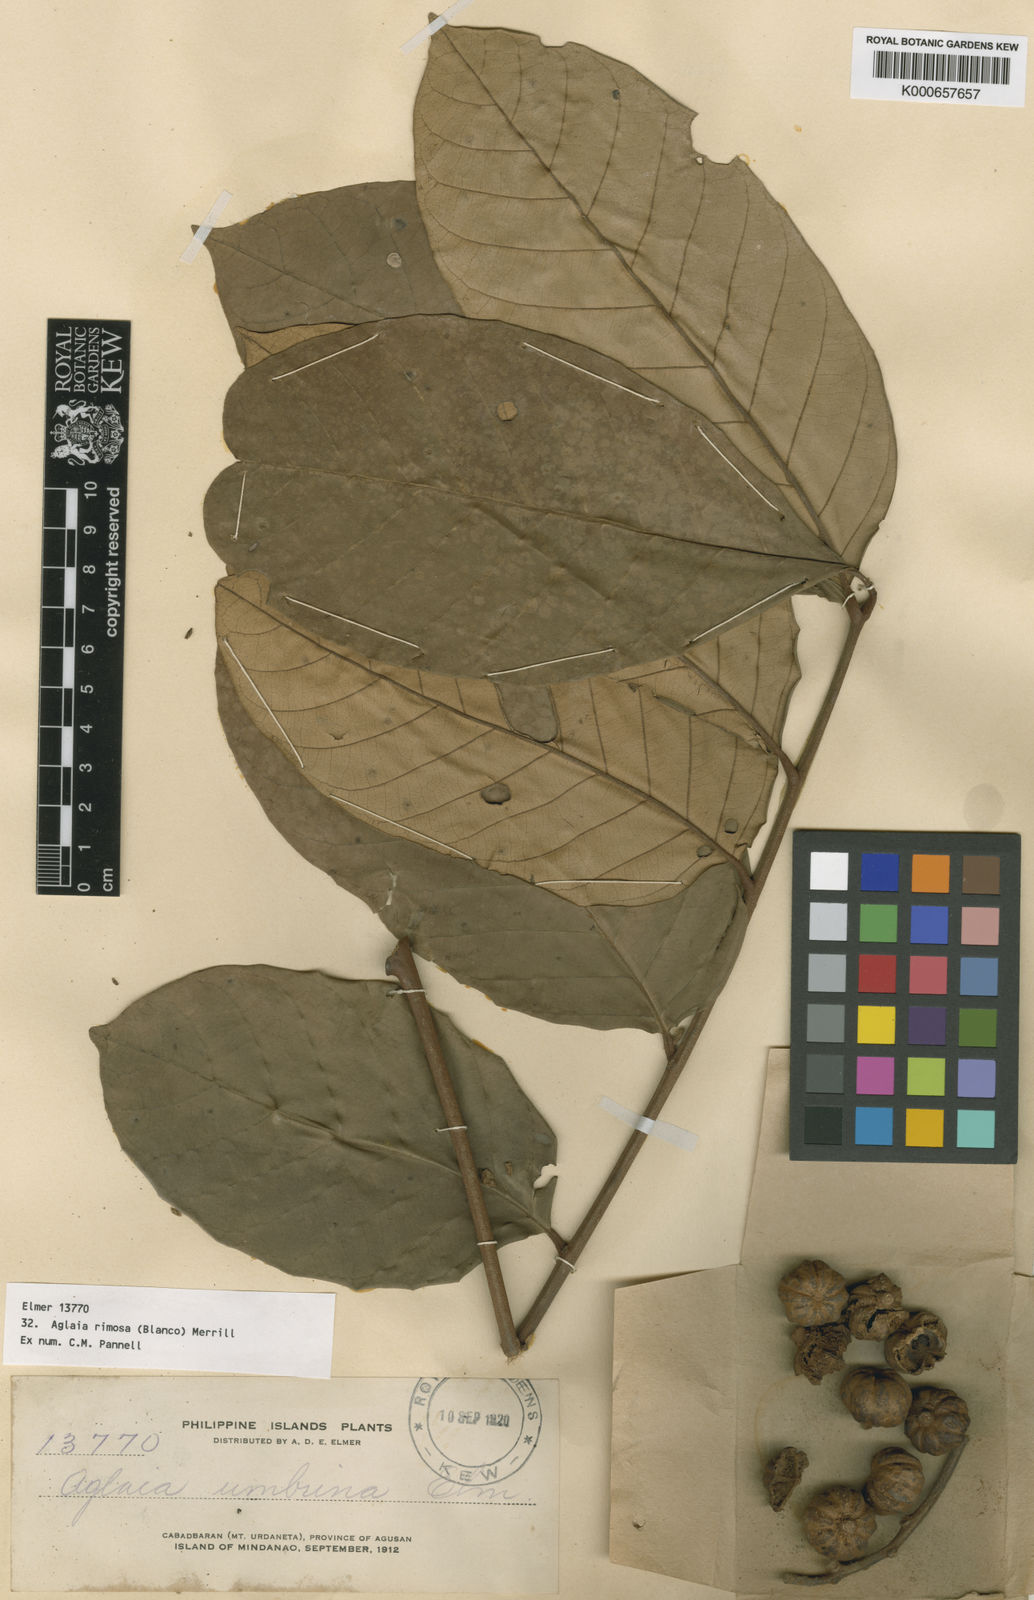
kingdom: Plantae
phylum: Tracheophyta
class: Magnoliopsida
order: Sapindales
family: Meliaceae
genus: Aglaia
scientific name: Aglaia rimosa
